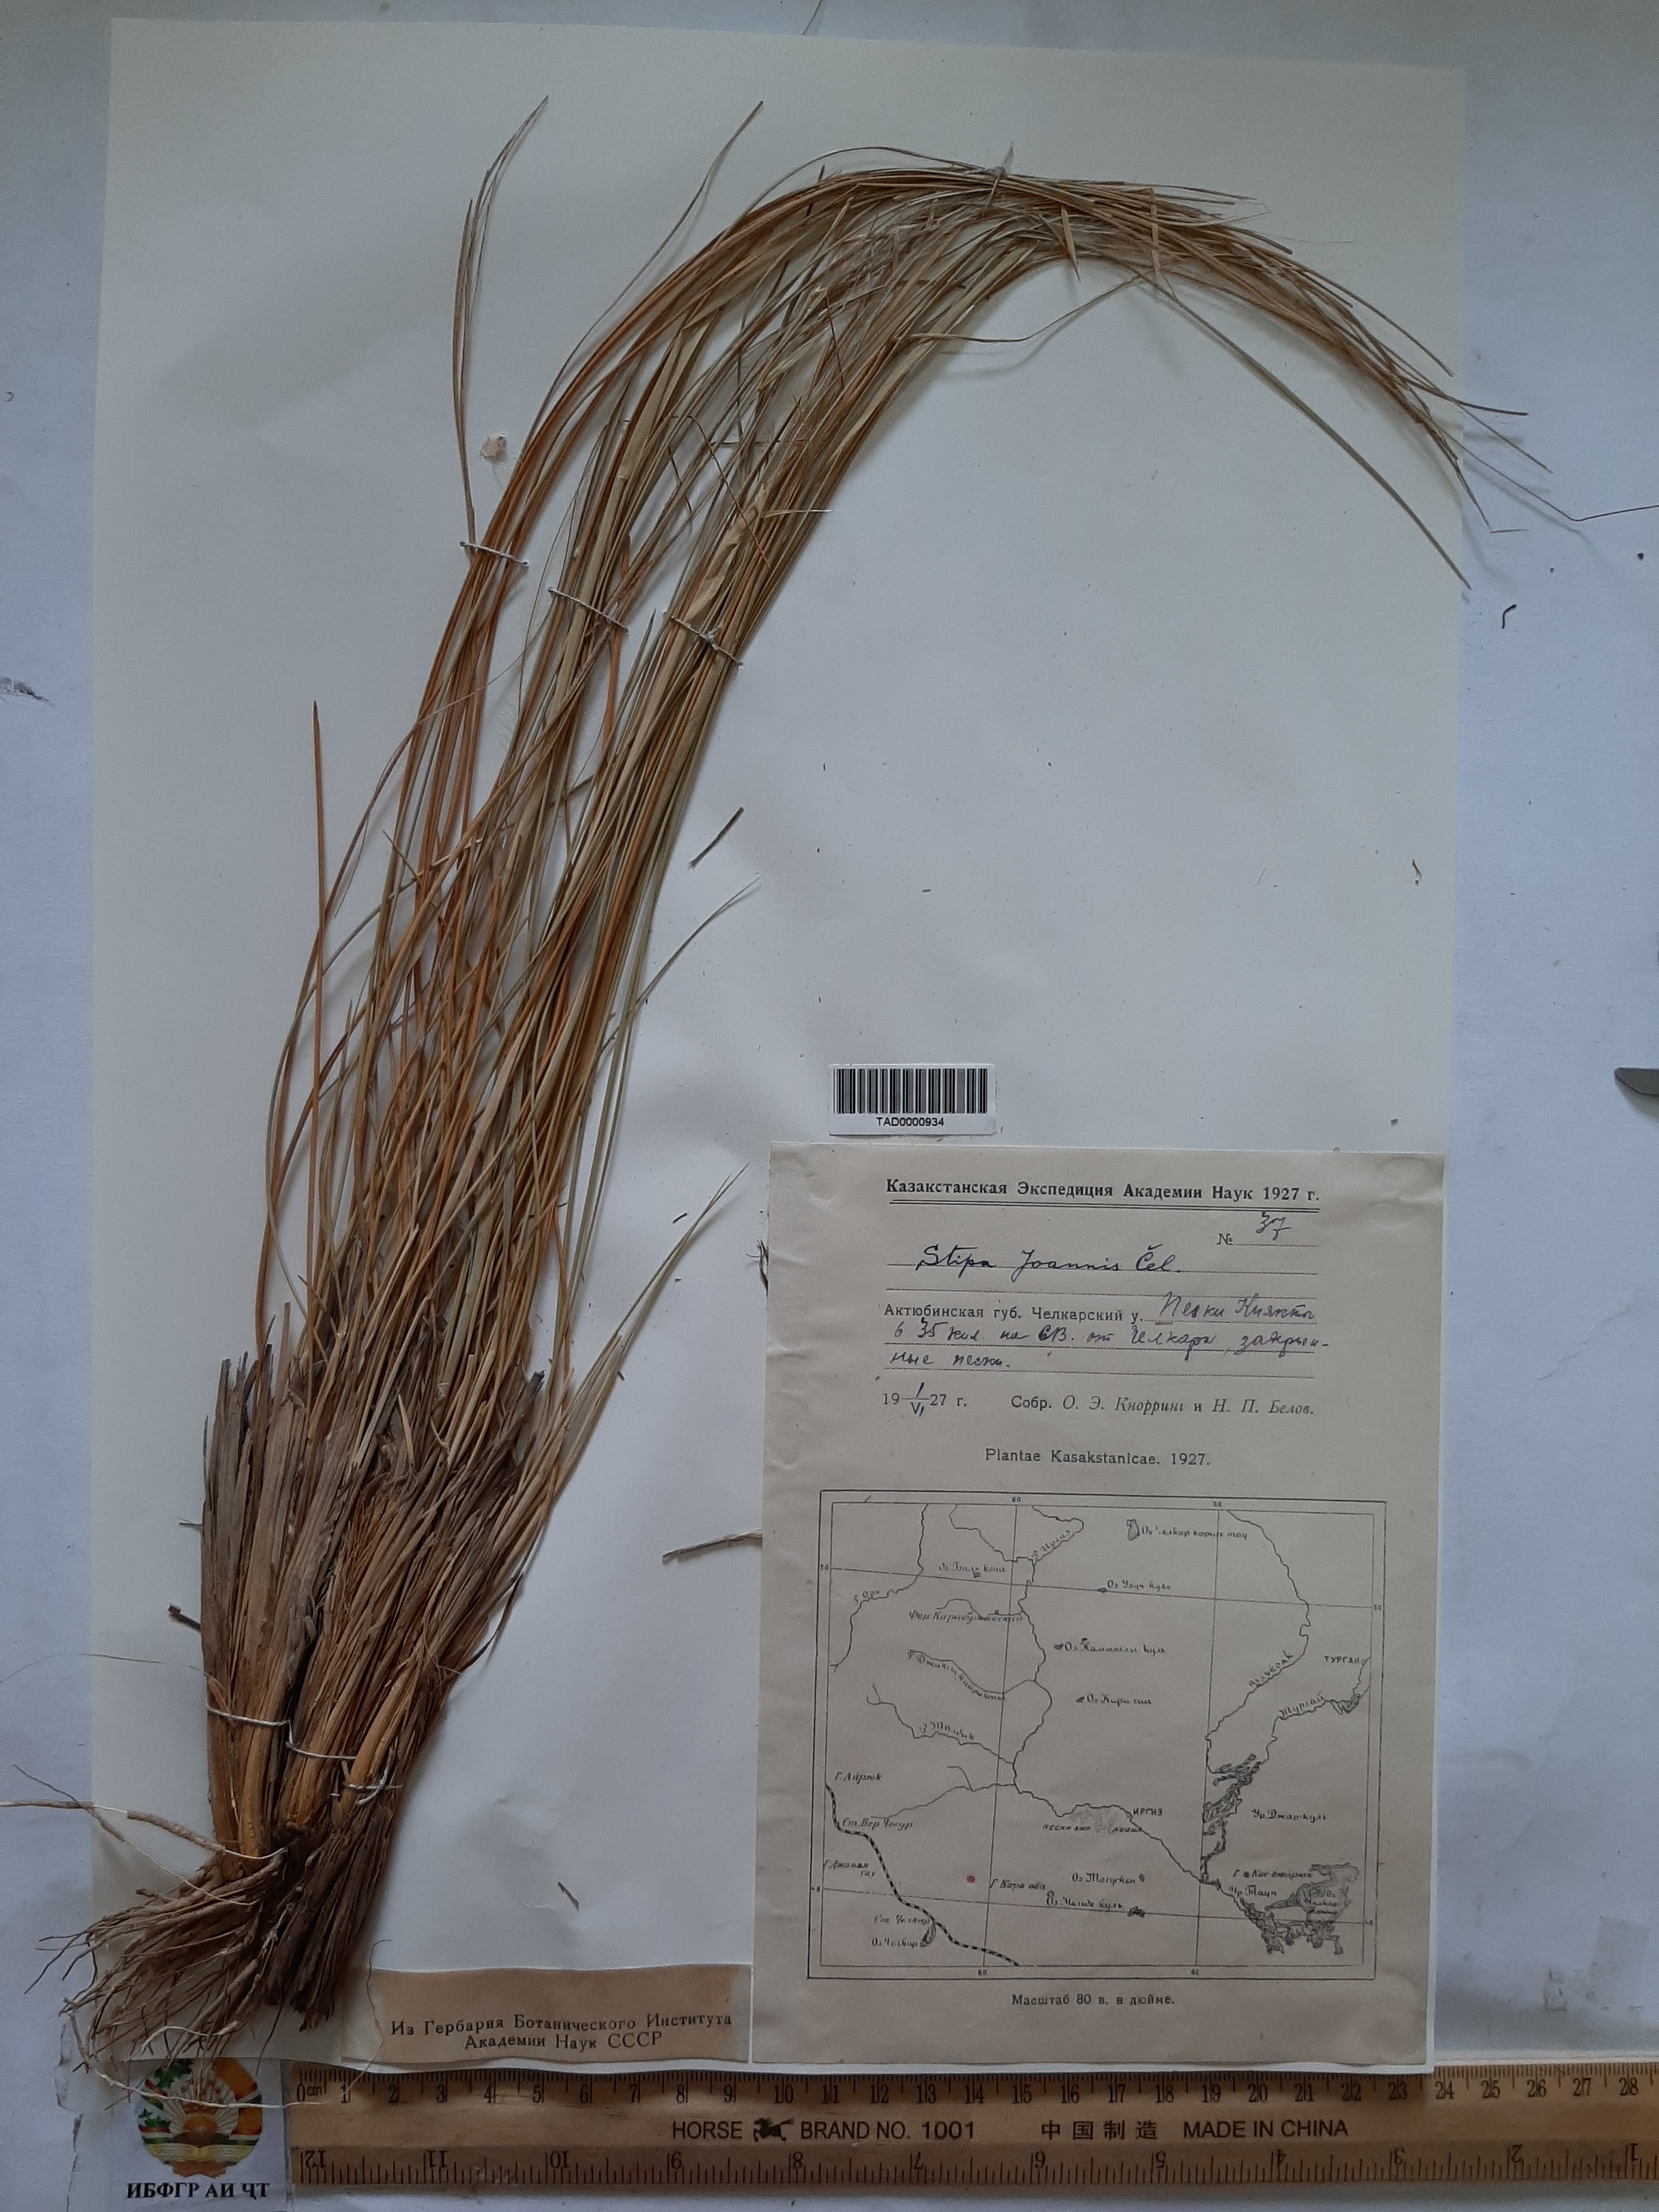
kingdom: Plantae
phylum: Tracheophyta
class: Liliopsida
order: Poales
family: Poaceae
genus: Stipa
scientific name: Stipa pennata
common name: European feather grass
